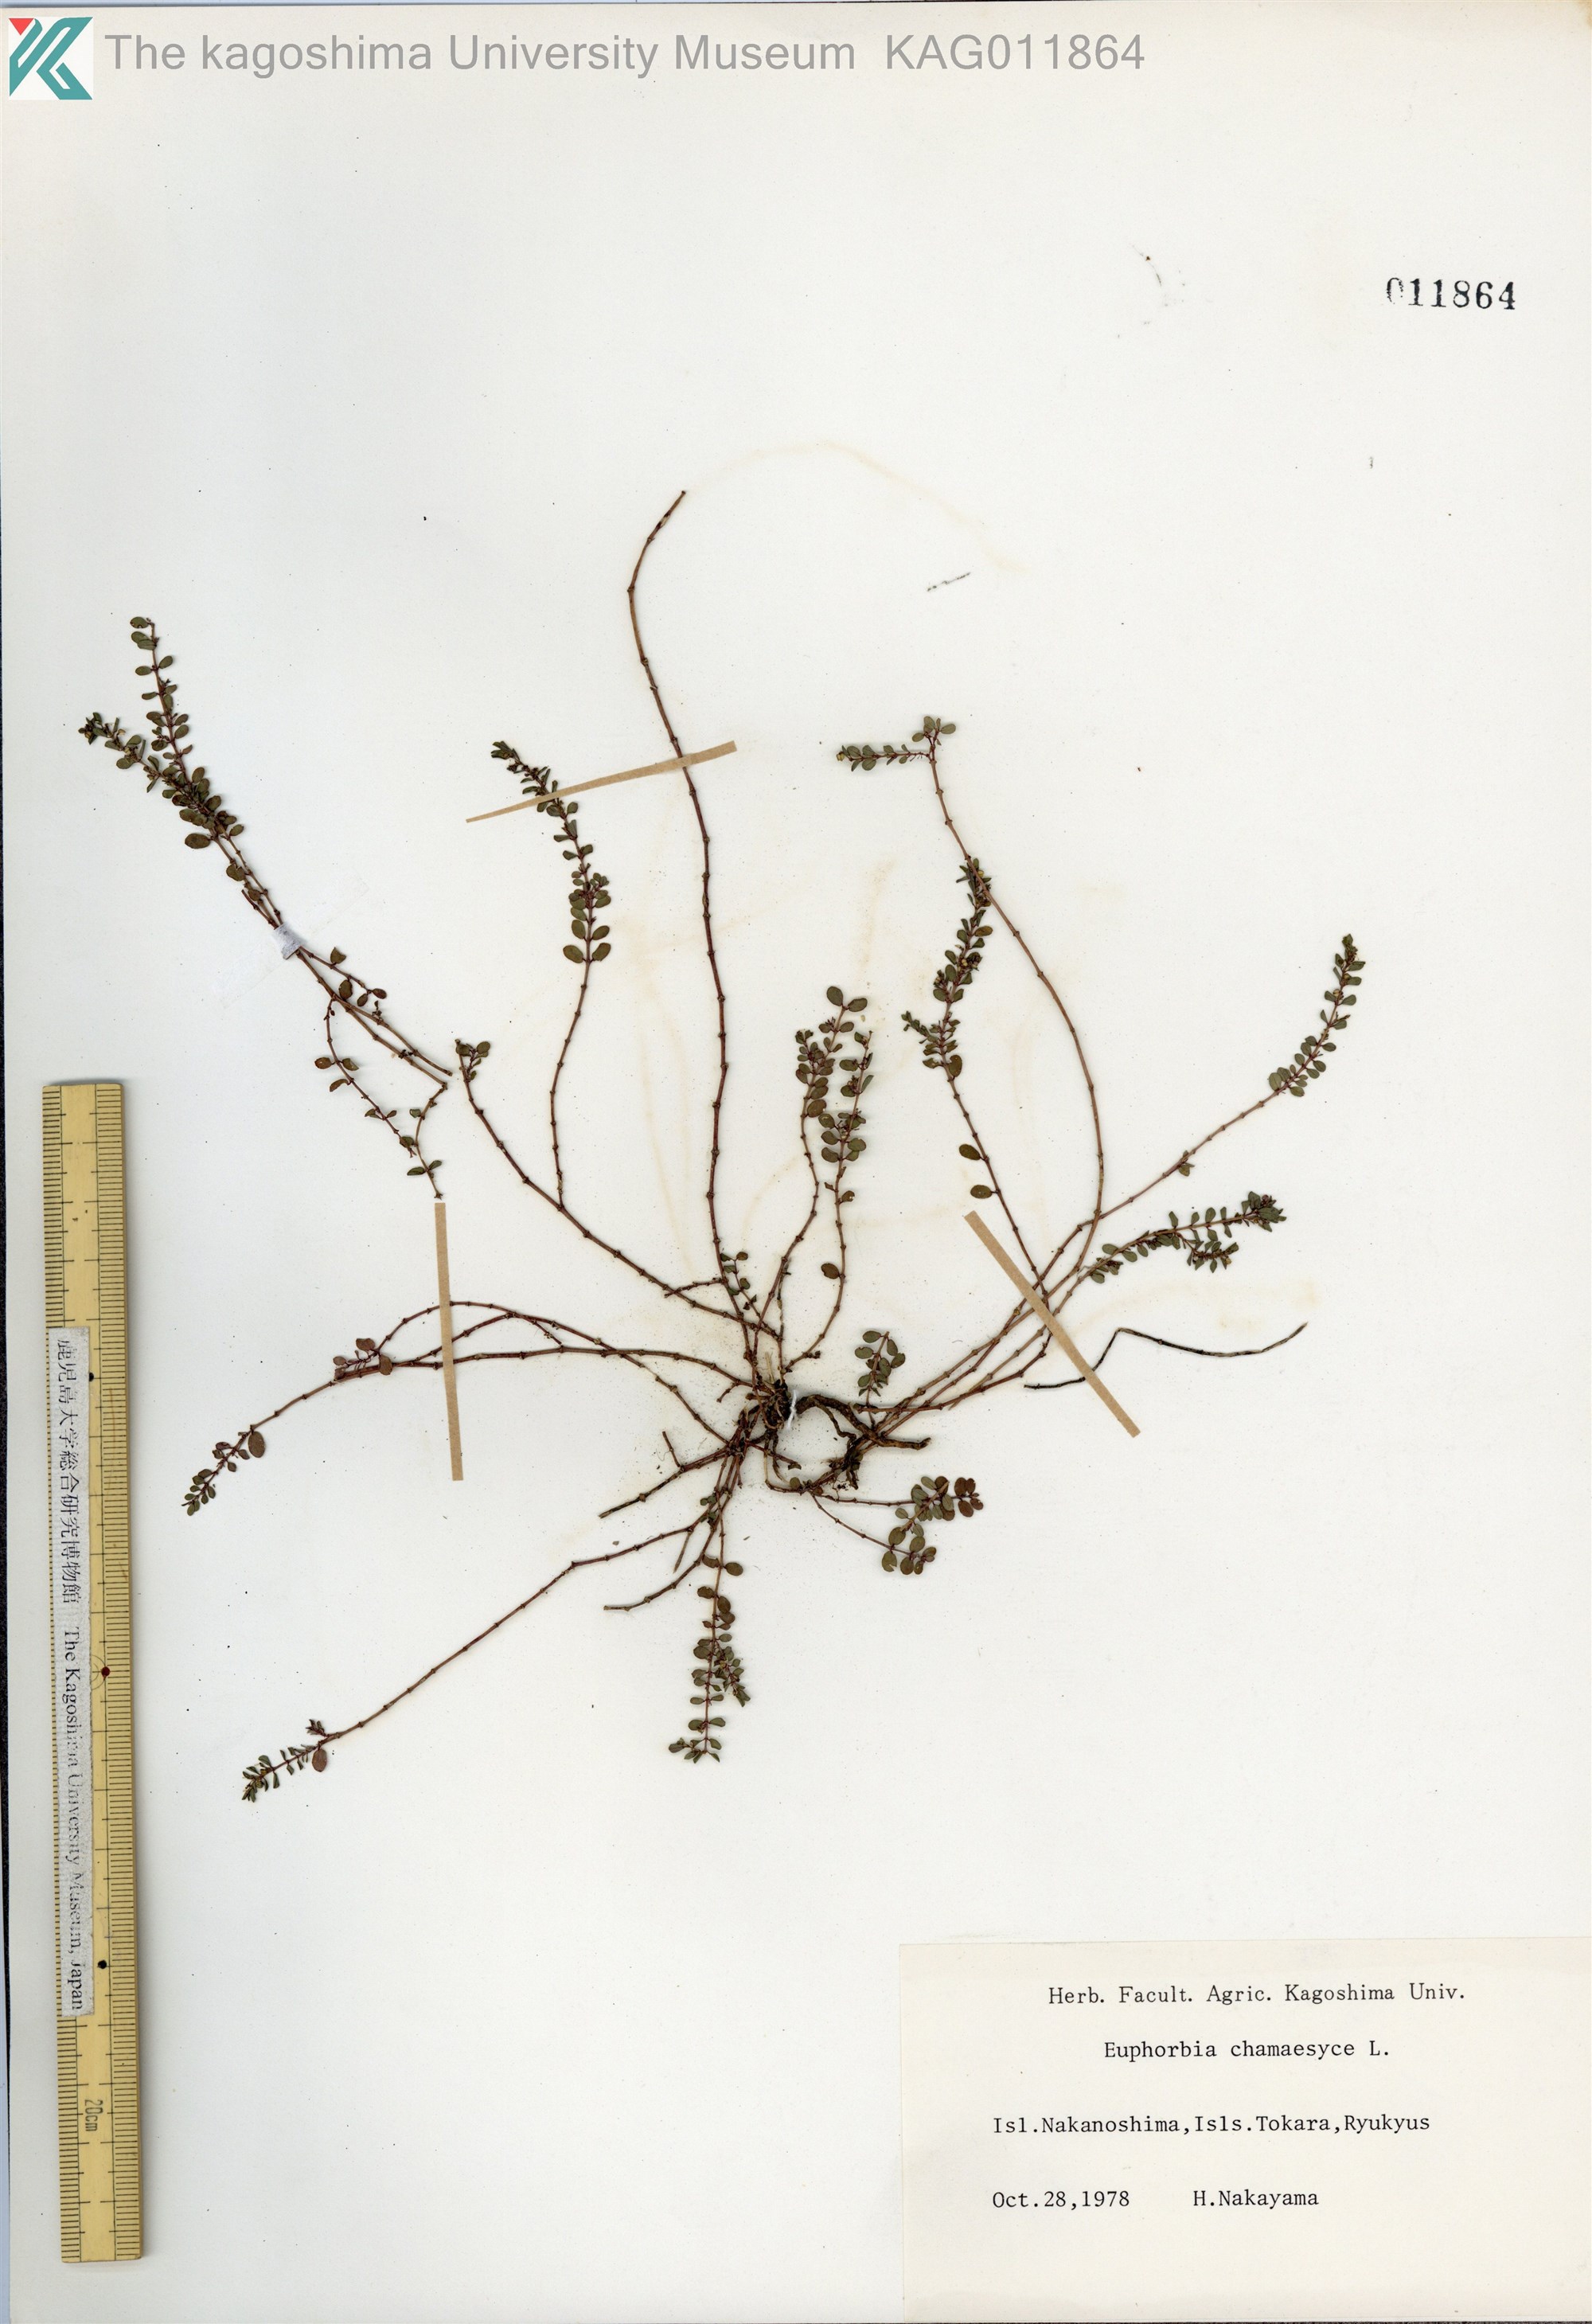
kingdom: Plantae
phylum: Tracheophyta
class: Magnoliopsida
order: Malpighiales
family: Euphorbiaceae
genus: Euphorbia
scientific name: Euphorbia prostrata
